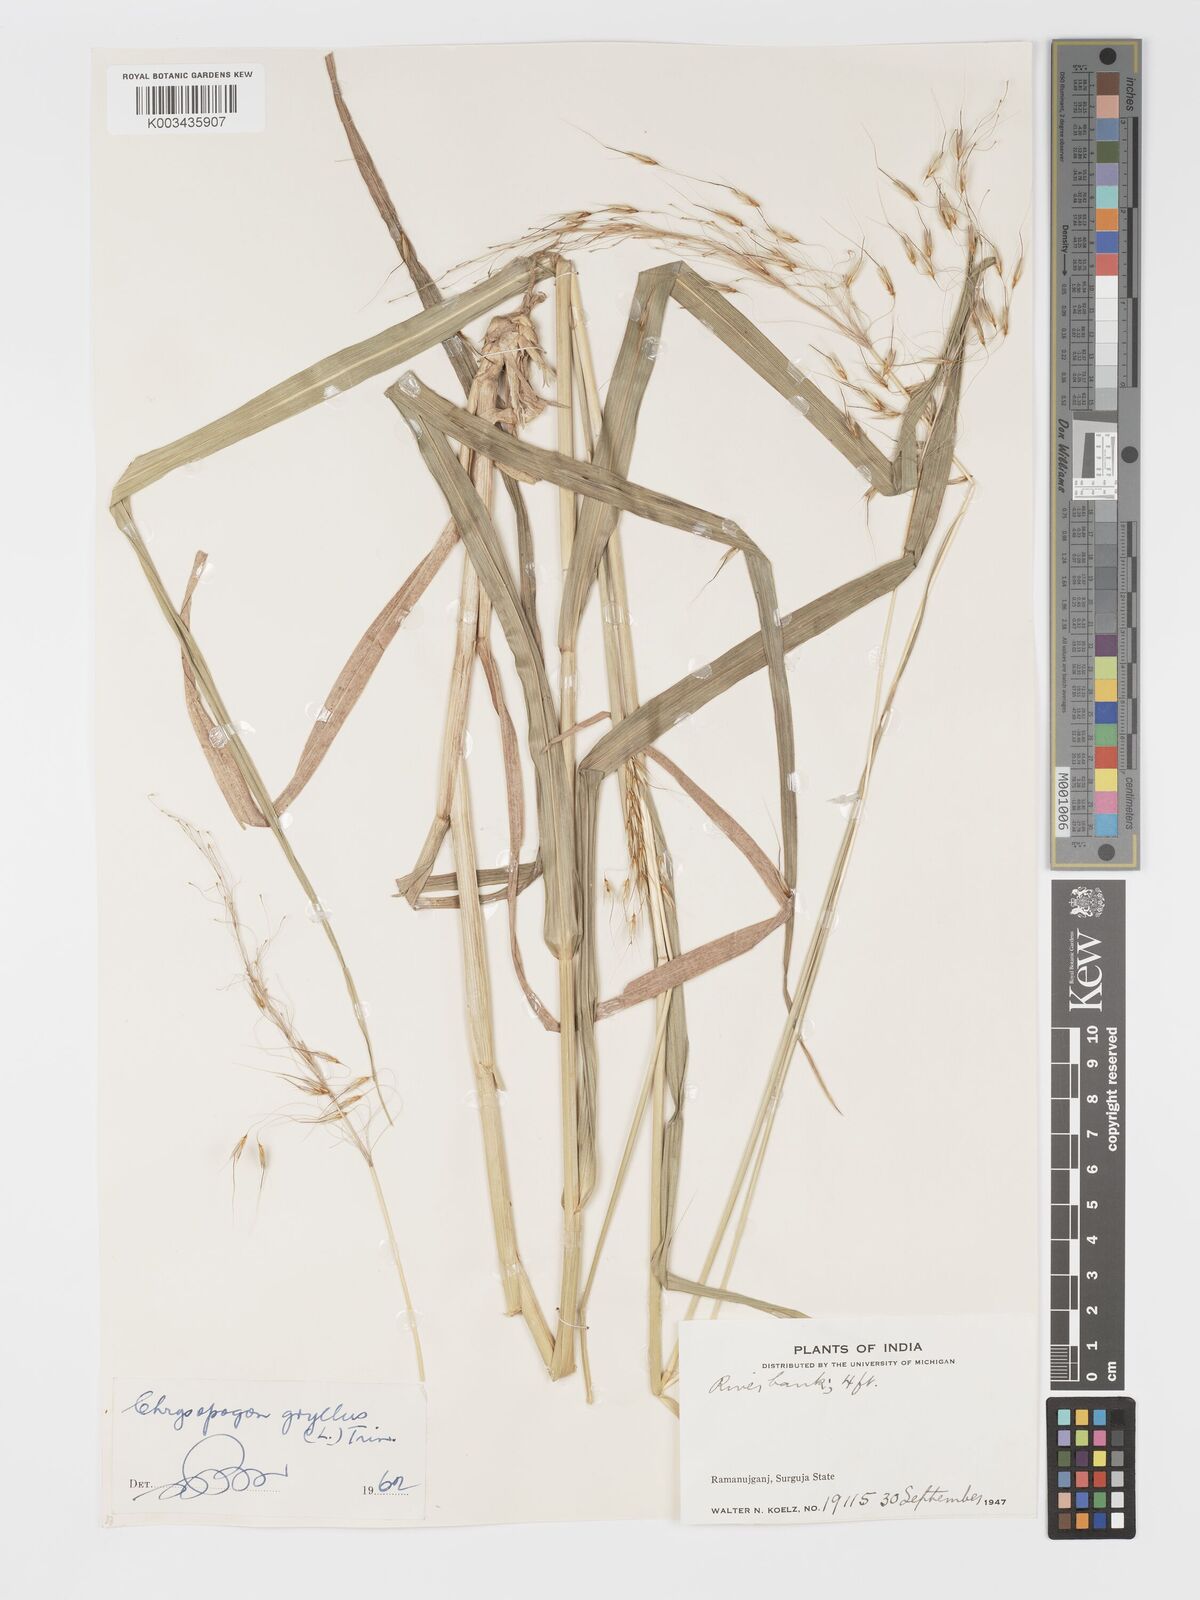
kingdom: Plantae
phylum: Tracheophyta
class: Liliopsida
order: Poales
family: Poaceae
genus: Chrysopogon
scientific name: Chrysopogon gryllus
